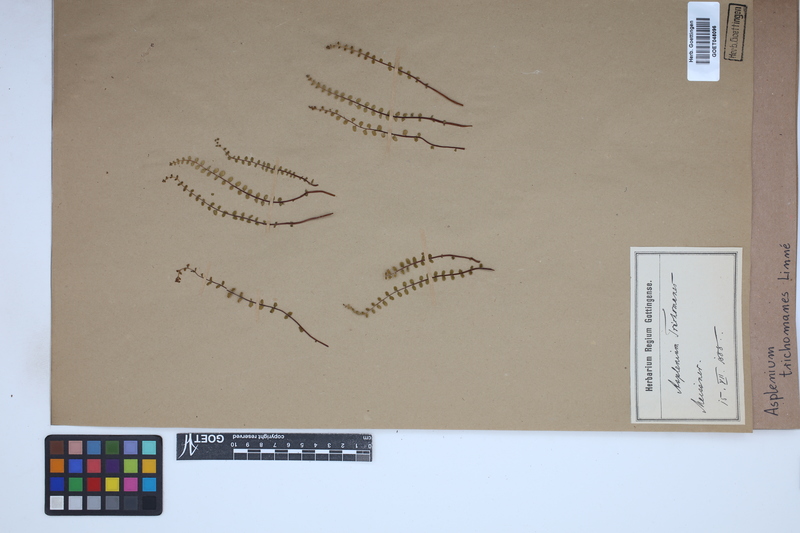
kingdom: Plantae
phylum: Tracheophyta
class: Polypodiopsida
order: Polypodiales
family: Aspleniaceae
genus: Asplenium
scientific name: Asplenium trichomanes
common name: Maidenhair spleenwort
